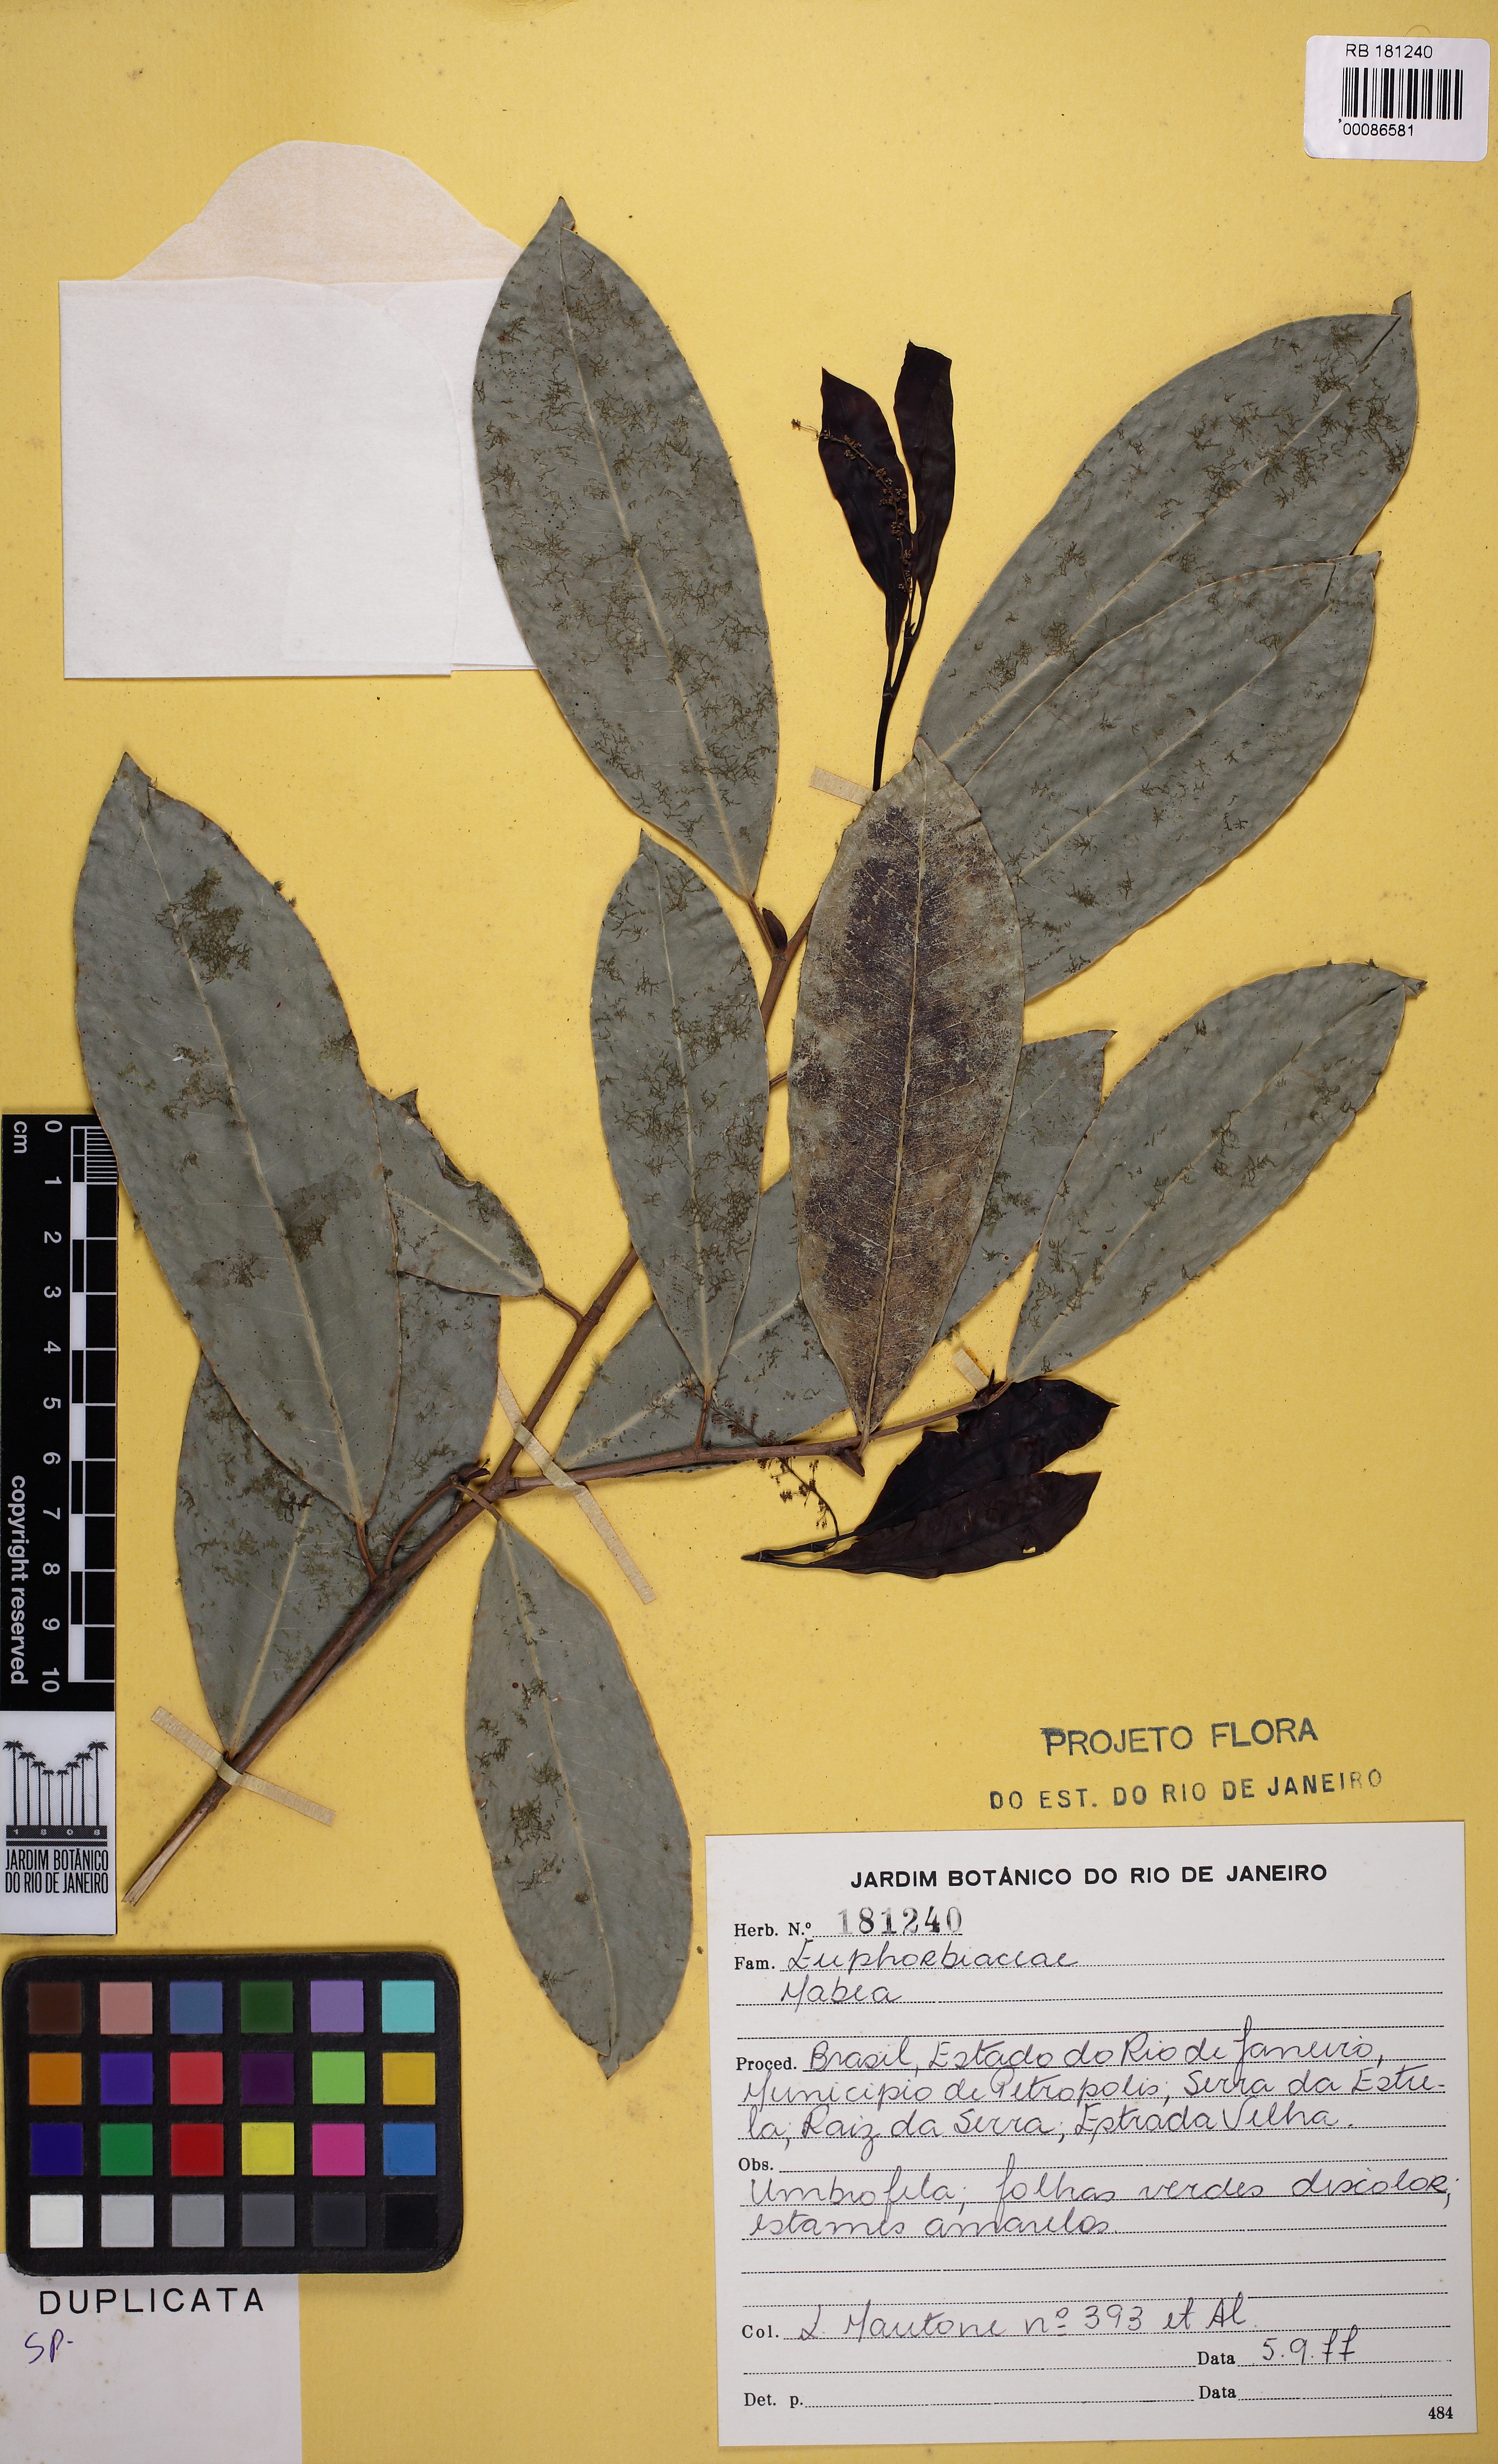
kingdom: Plantae
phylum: Tracheophyta
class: Magnoliopsida
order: Malpighiales
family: Euphorbiaceae
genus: Actinostemon
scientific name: Actinostemon concolor
